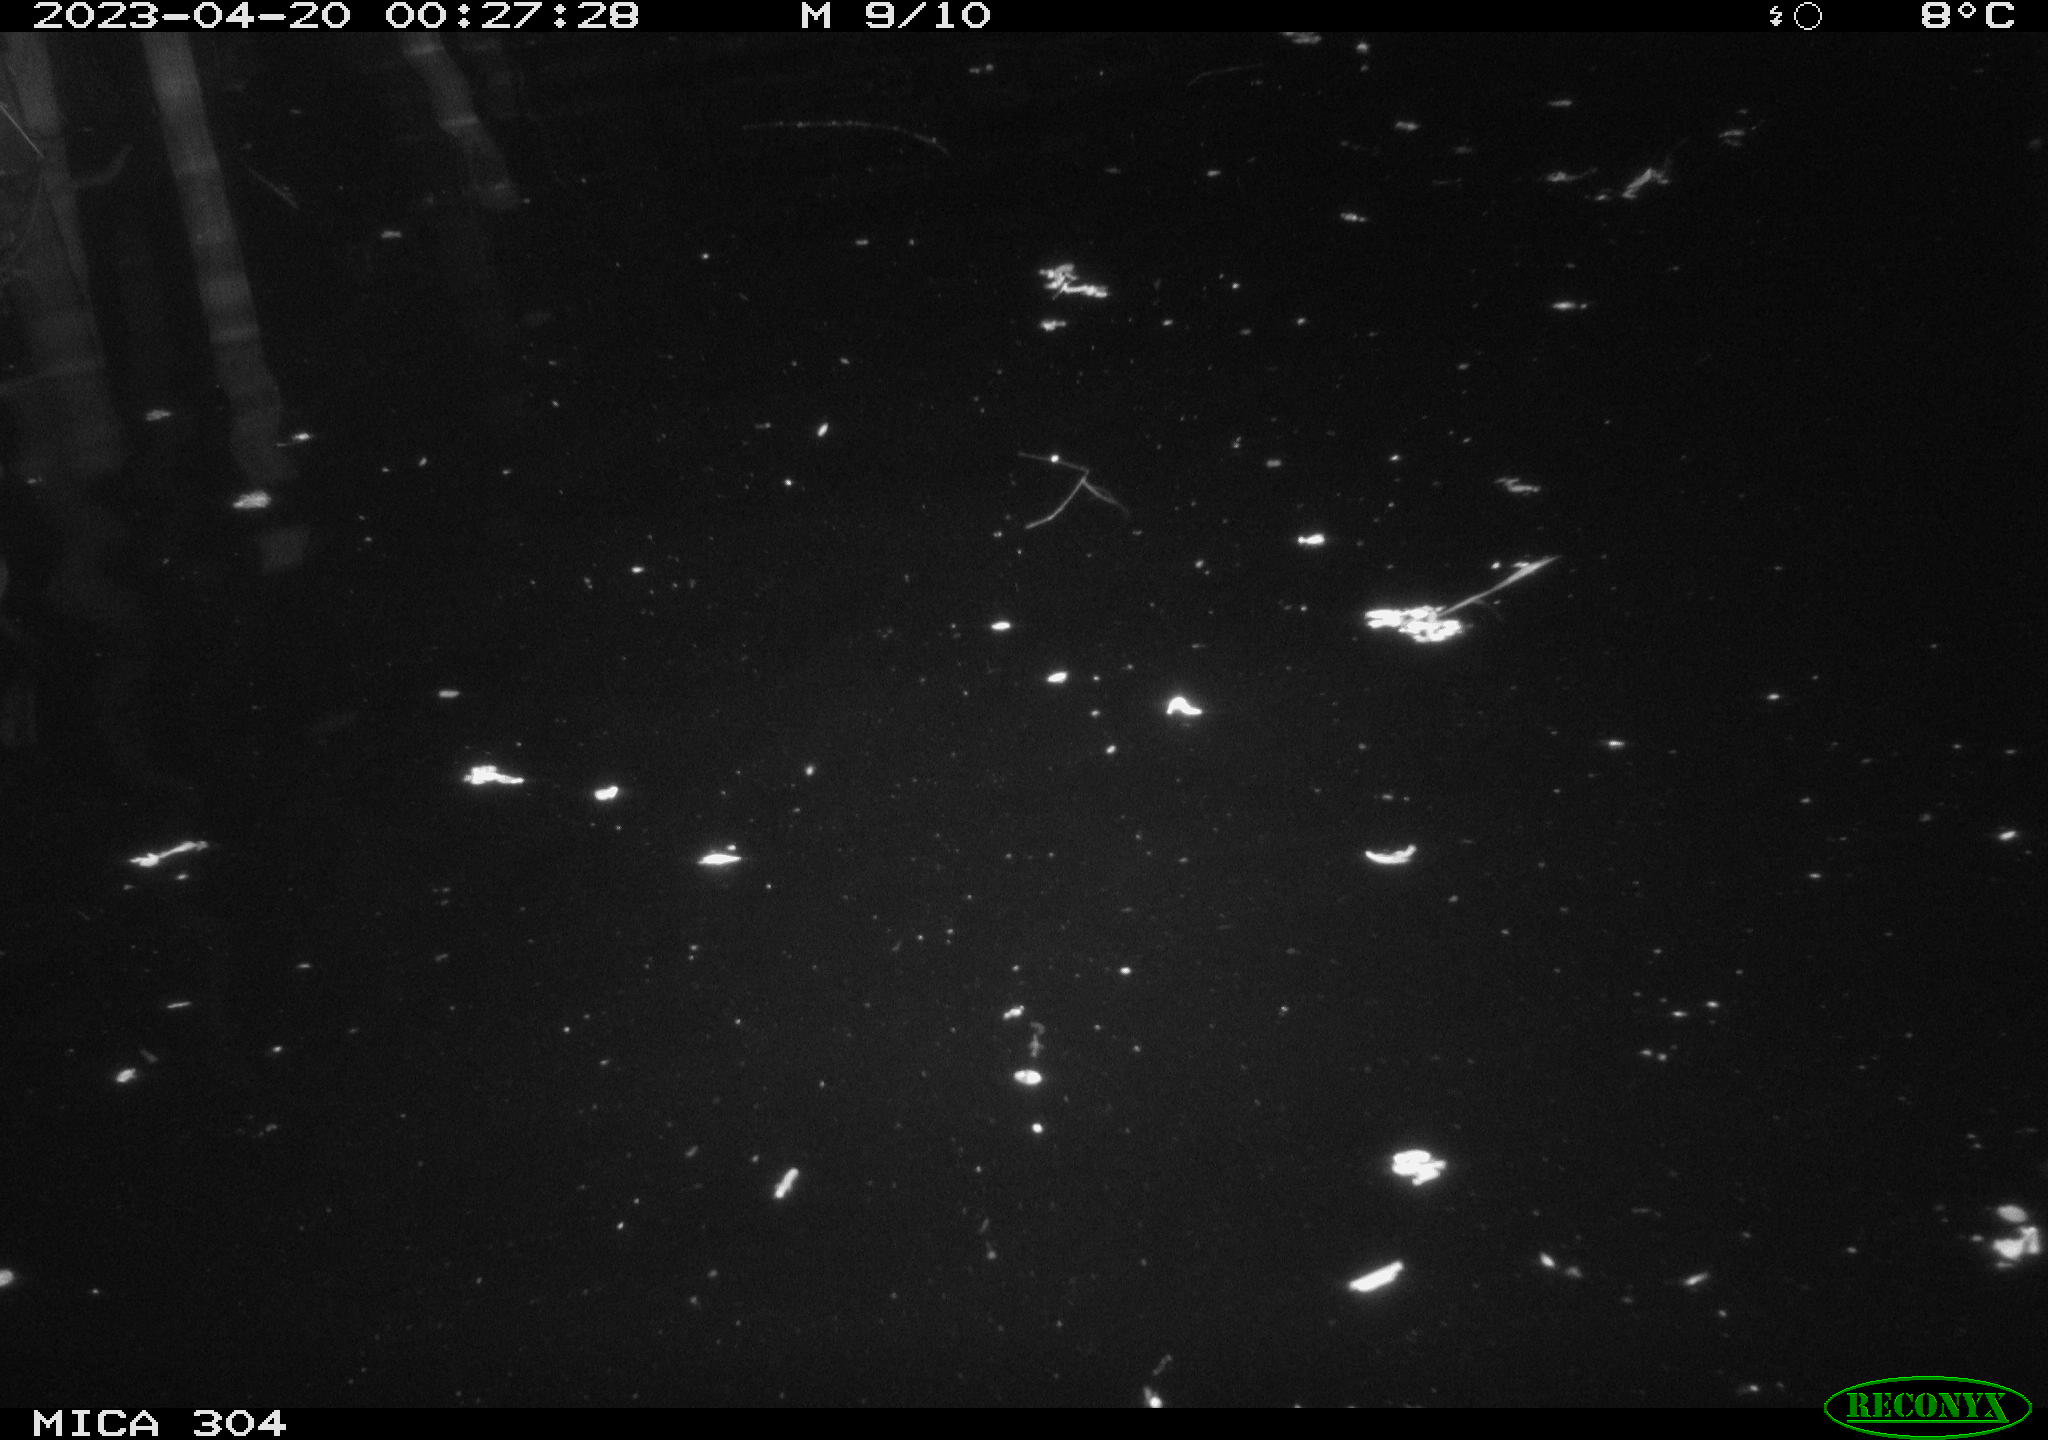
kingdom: Animalia
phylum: Chordata
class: Aves
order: Anseriformes
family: Anatidae
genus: Anas
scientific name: Anas
